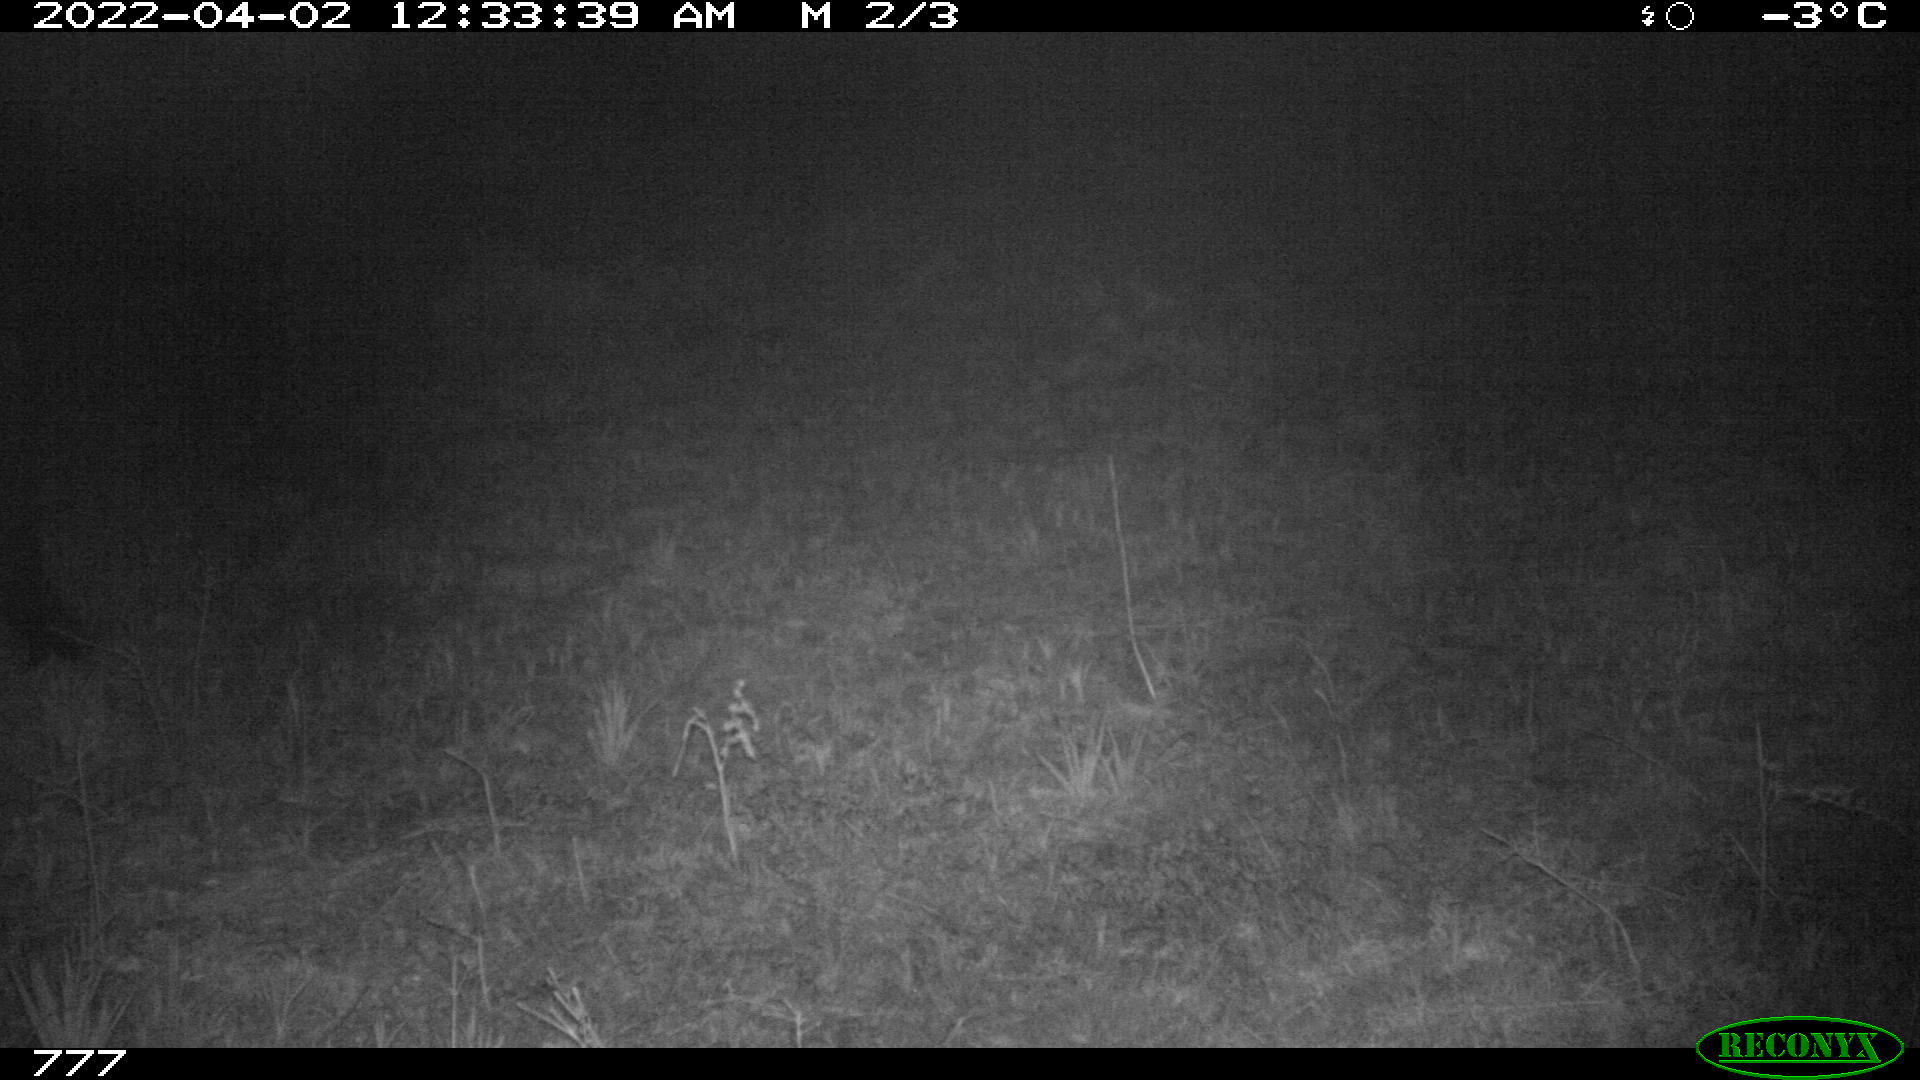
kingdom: Animalia
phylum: Chordata
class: Mammalia
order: Perissodactyla
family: Equidae
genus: Equus
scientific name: Equus caballus
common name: Horse
